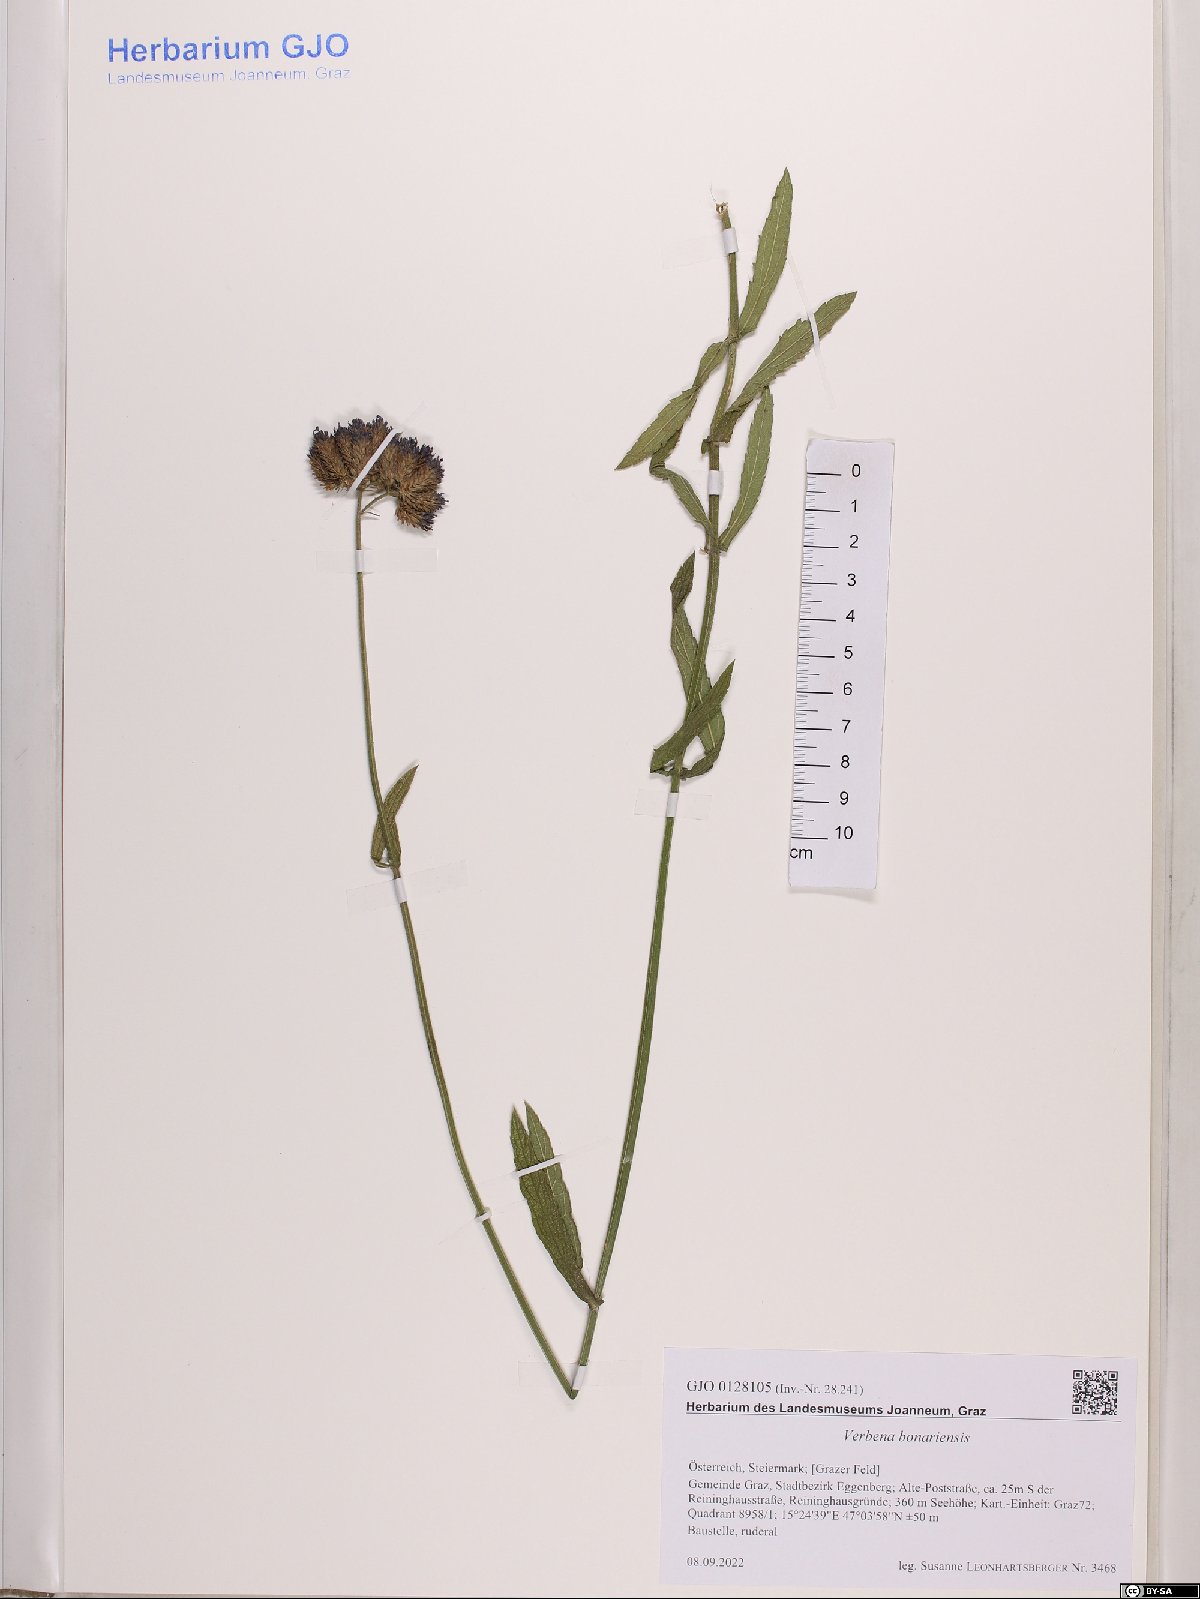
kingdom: Plantae
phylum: Tracheophyta
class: Magnoliopsida
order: Lamiales
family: Verbenaceae
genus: Verbena
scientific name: Verbena bonariensis
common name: Purpletop vervain
